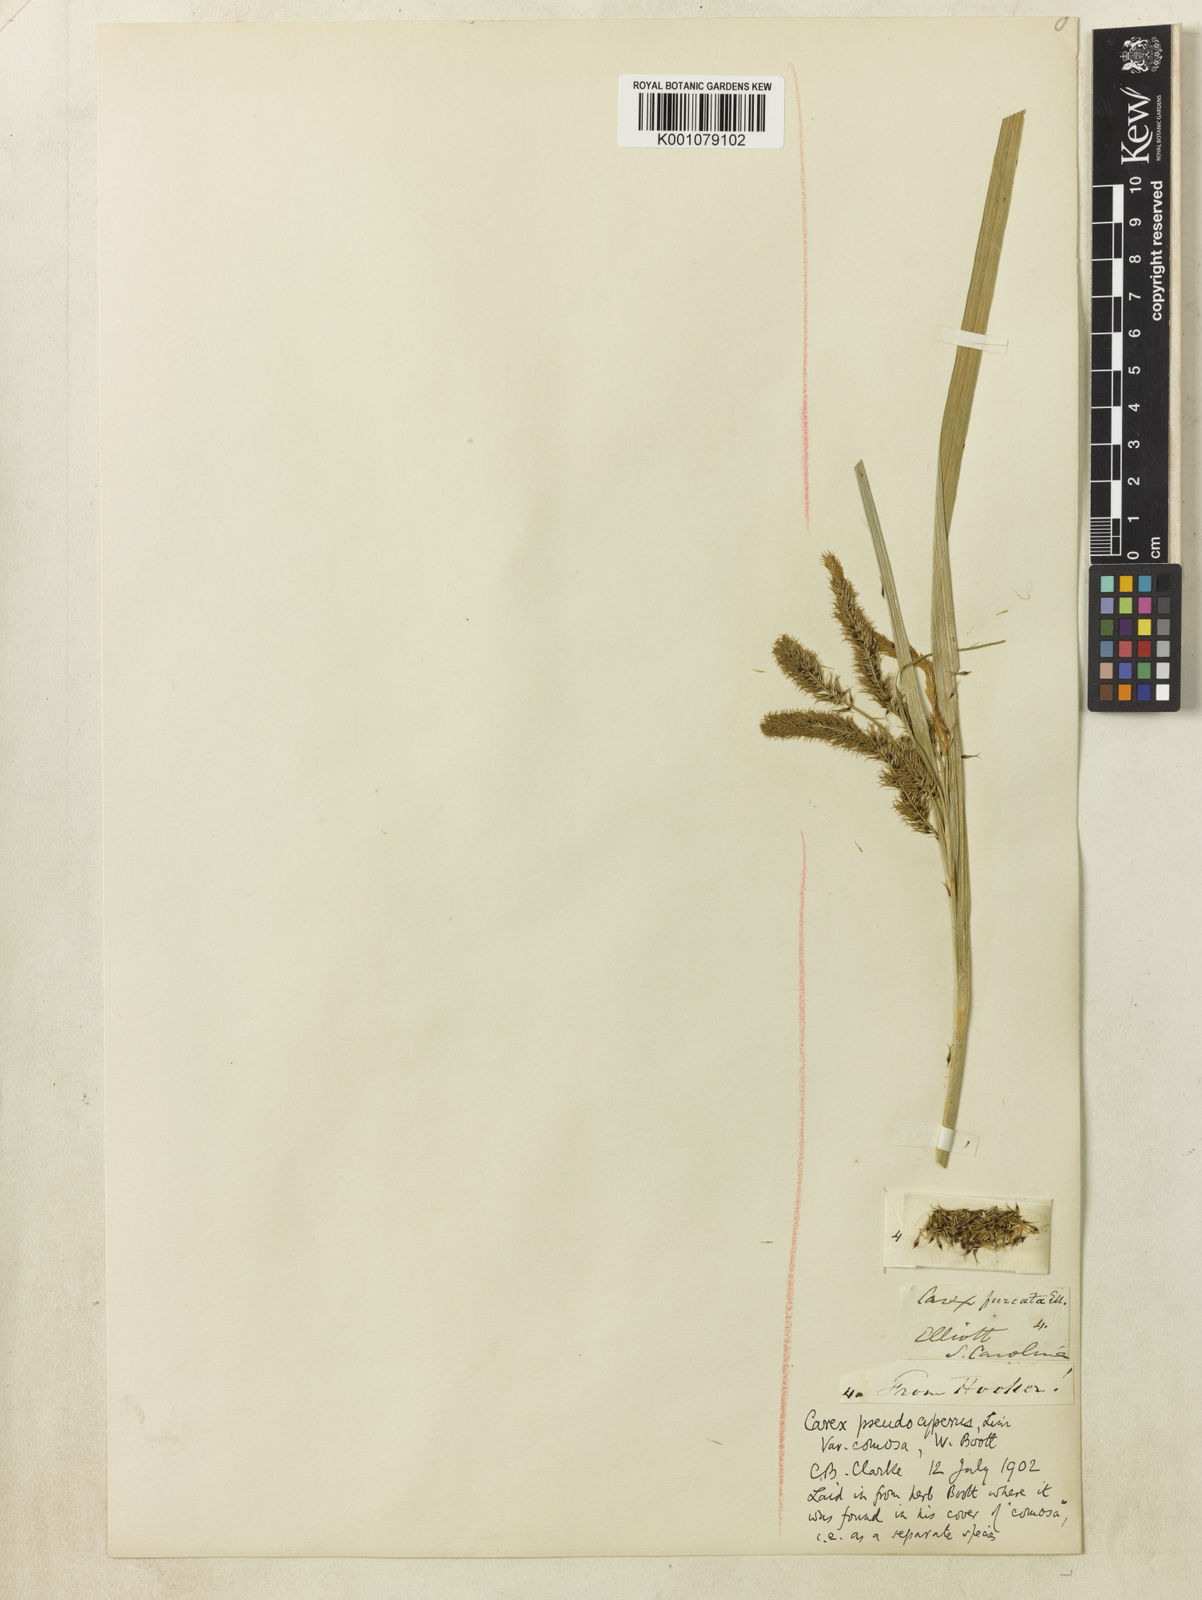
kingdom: Plantae
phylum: Tracheophyta
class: Liliopsida
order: Poales
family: Cyperaceae
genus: Carex
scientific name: Carex comosa
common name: Bristly sedge
